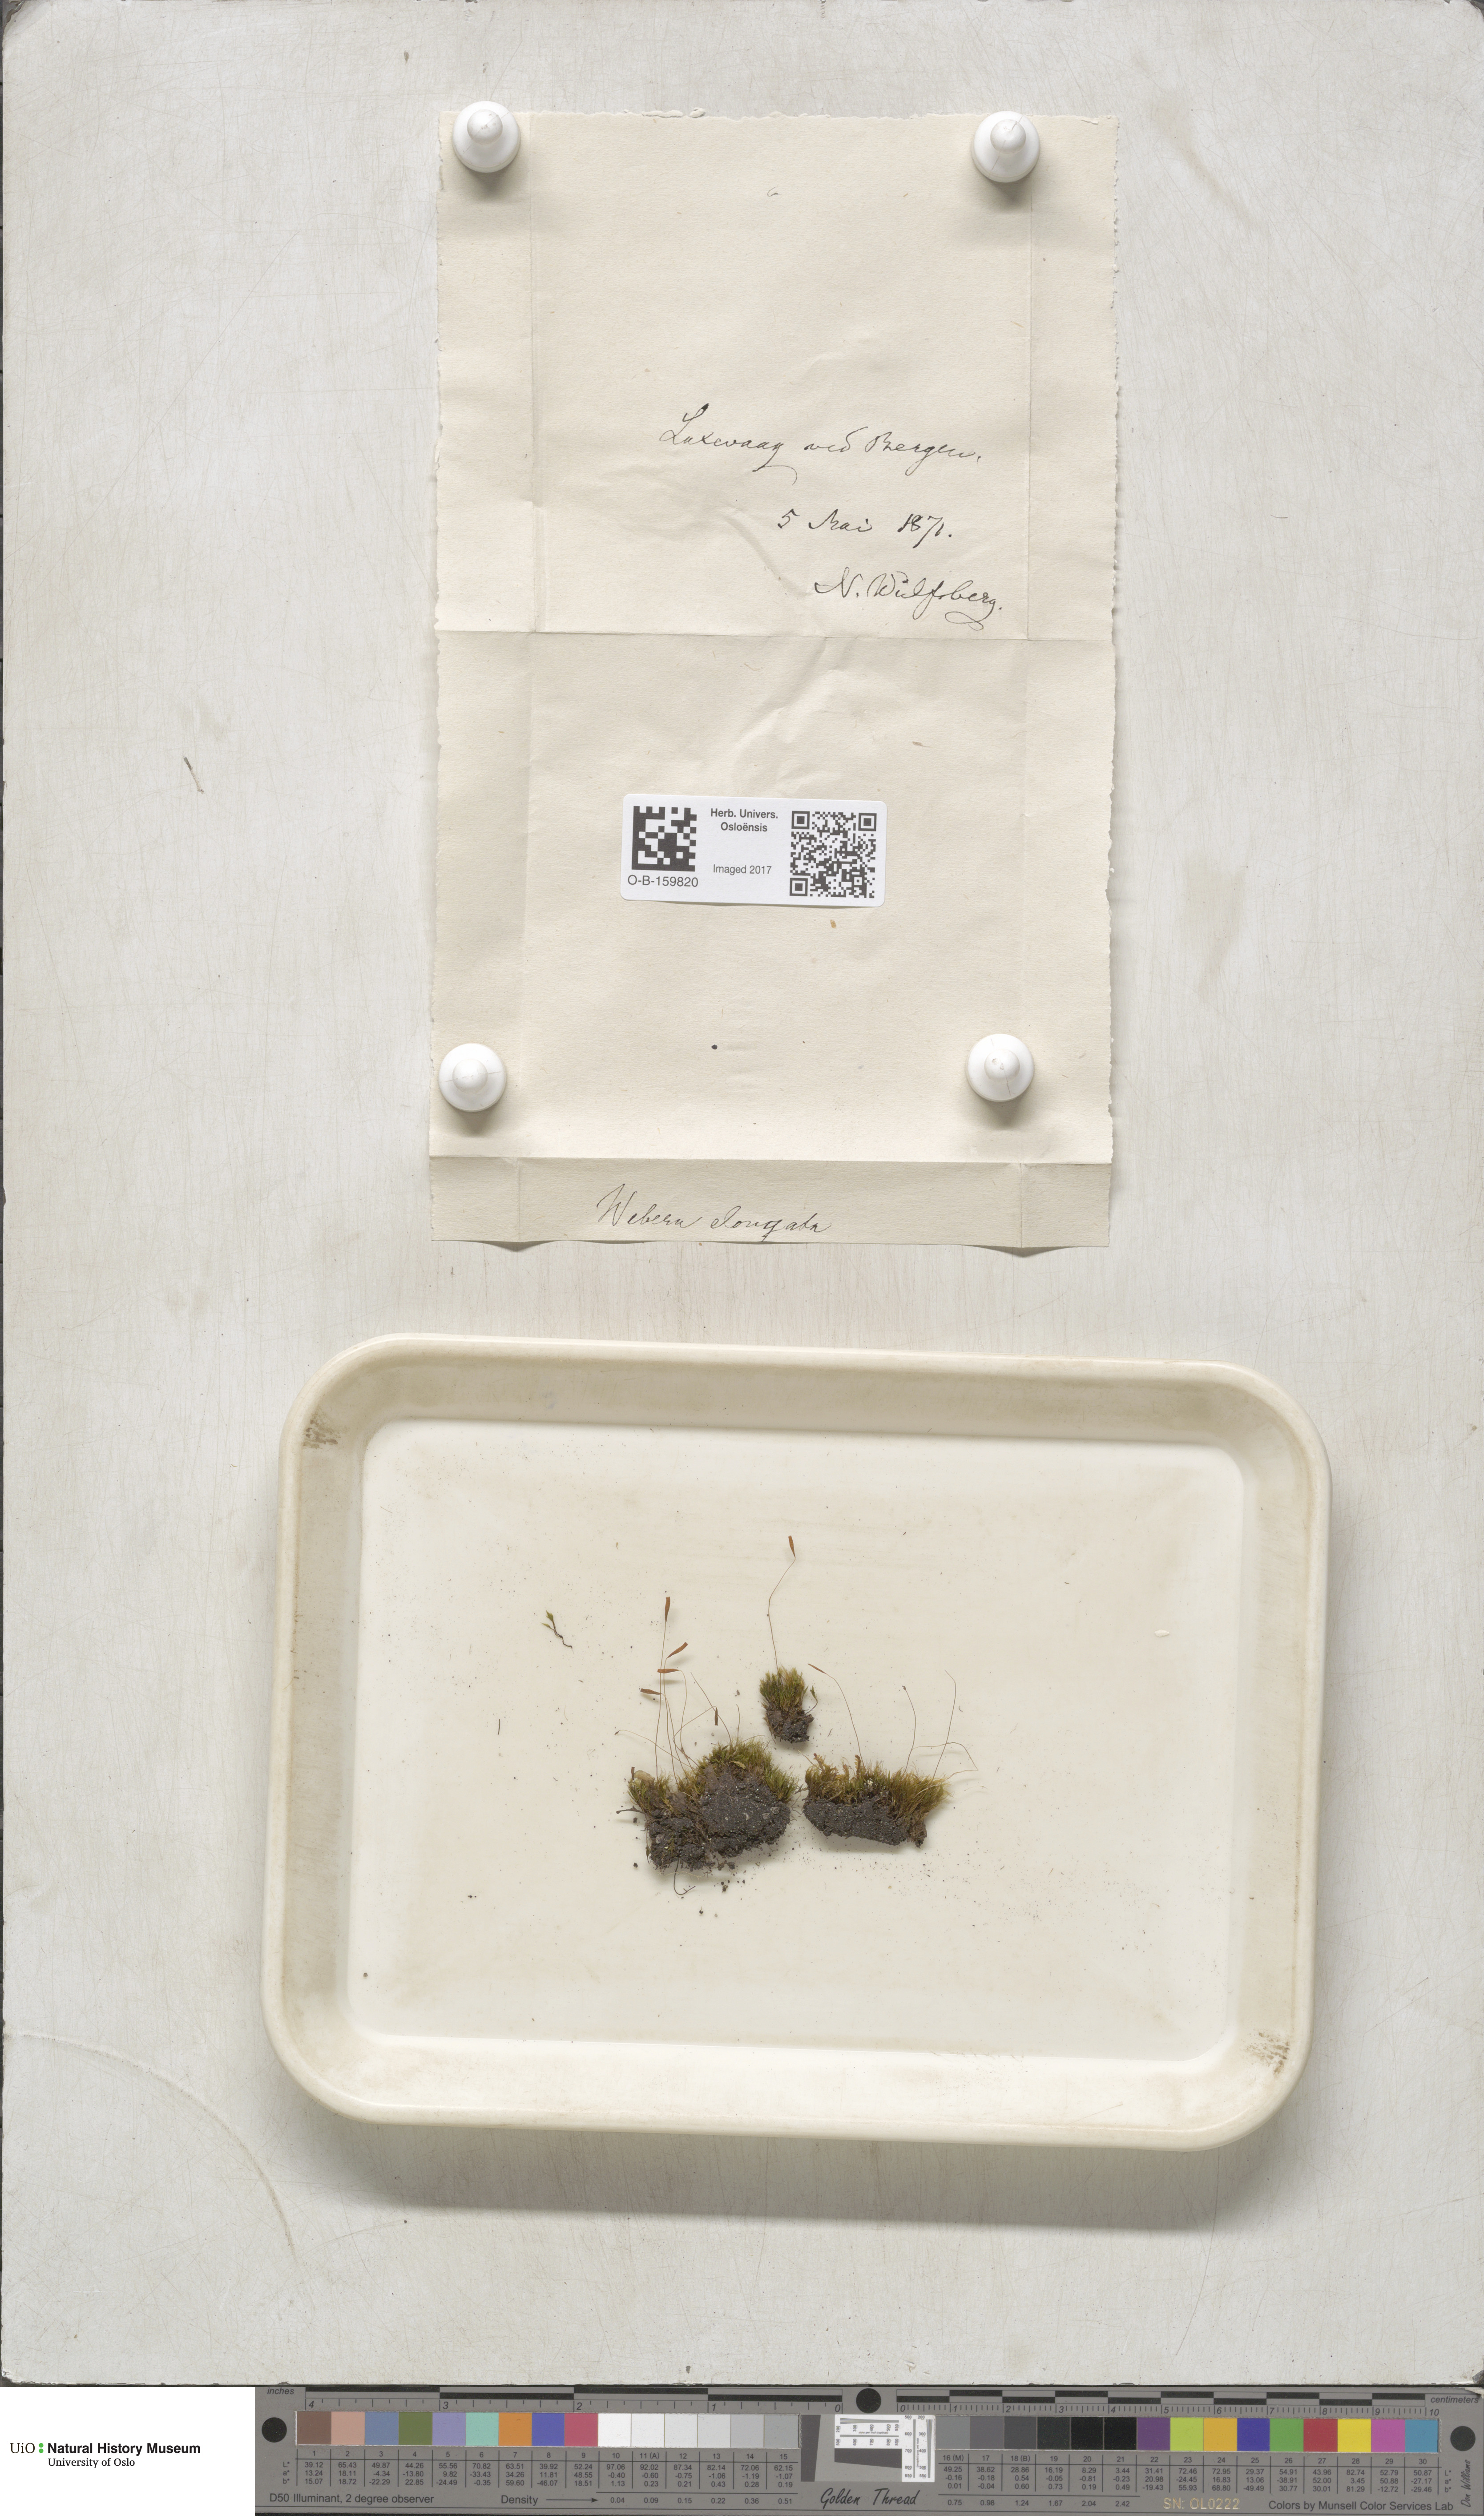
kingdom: Plantae
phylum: Bryophyta
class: Bryopsida
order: Bryales
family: Mniaceae
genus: Pohlia
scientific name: Pohlia elongata
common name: Long-fruited thread-moss
